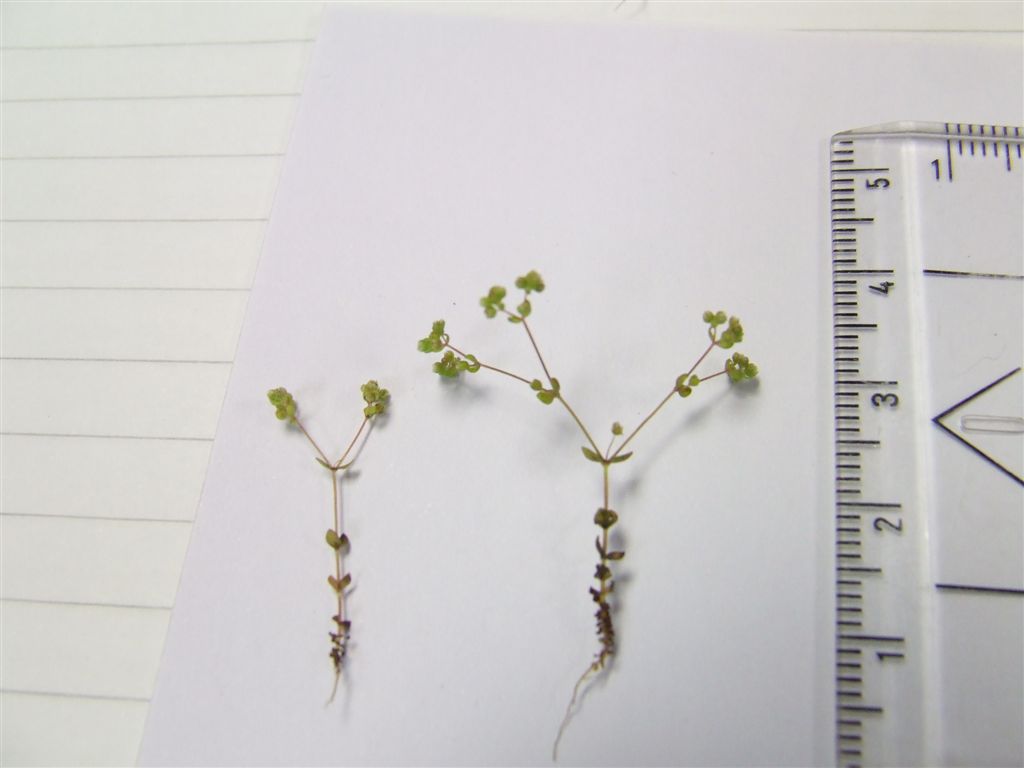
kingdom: Plantae
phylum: Tracheophyta
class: Magnoliopsida
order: Malpighiales
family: Linaceae
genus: Radiola
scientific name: Radiola linoides
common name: Allseed
